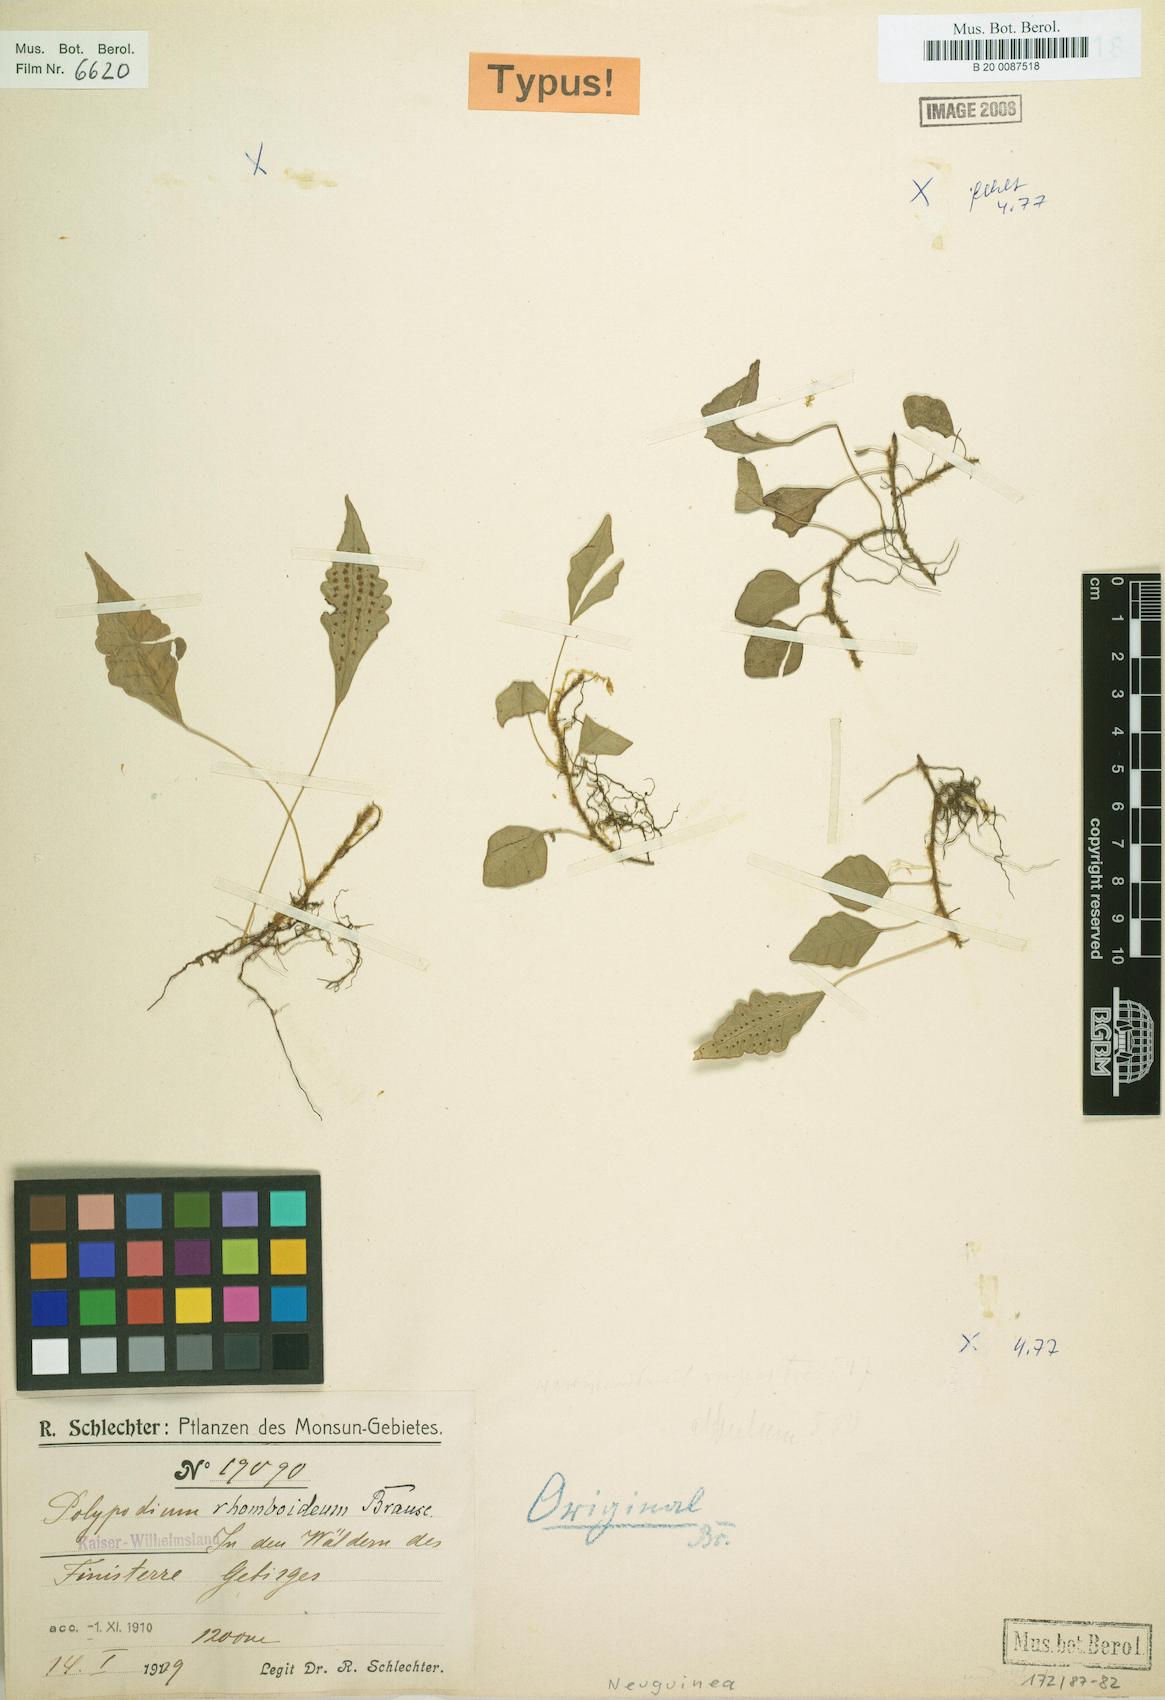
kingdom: Plantae
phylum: Tracheophyta
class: Polypodiopsida
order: Polypodiales
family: Polypodiaceae
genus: Selliguea
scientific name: Selliguea enervis
